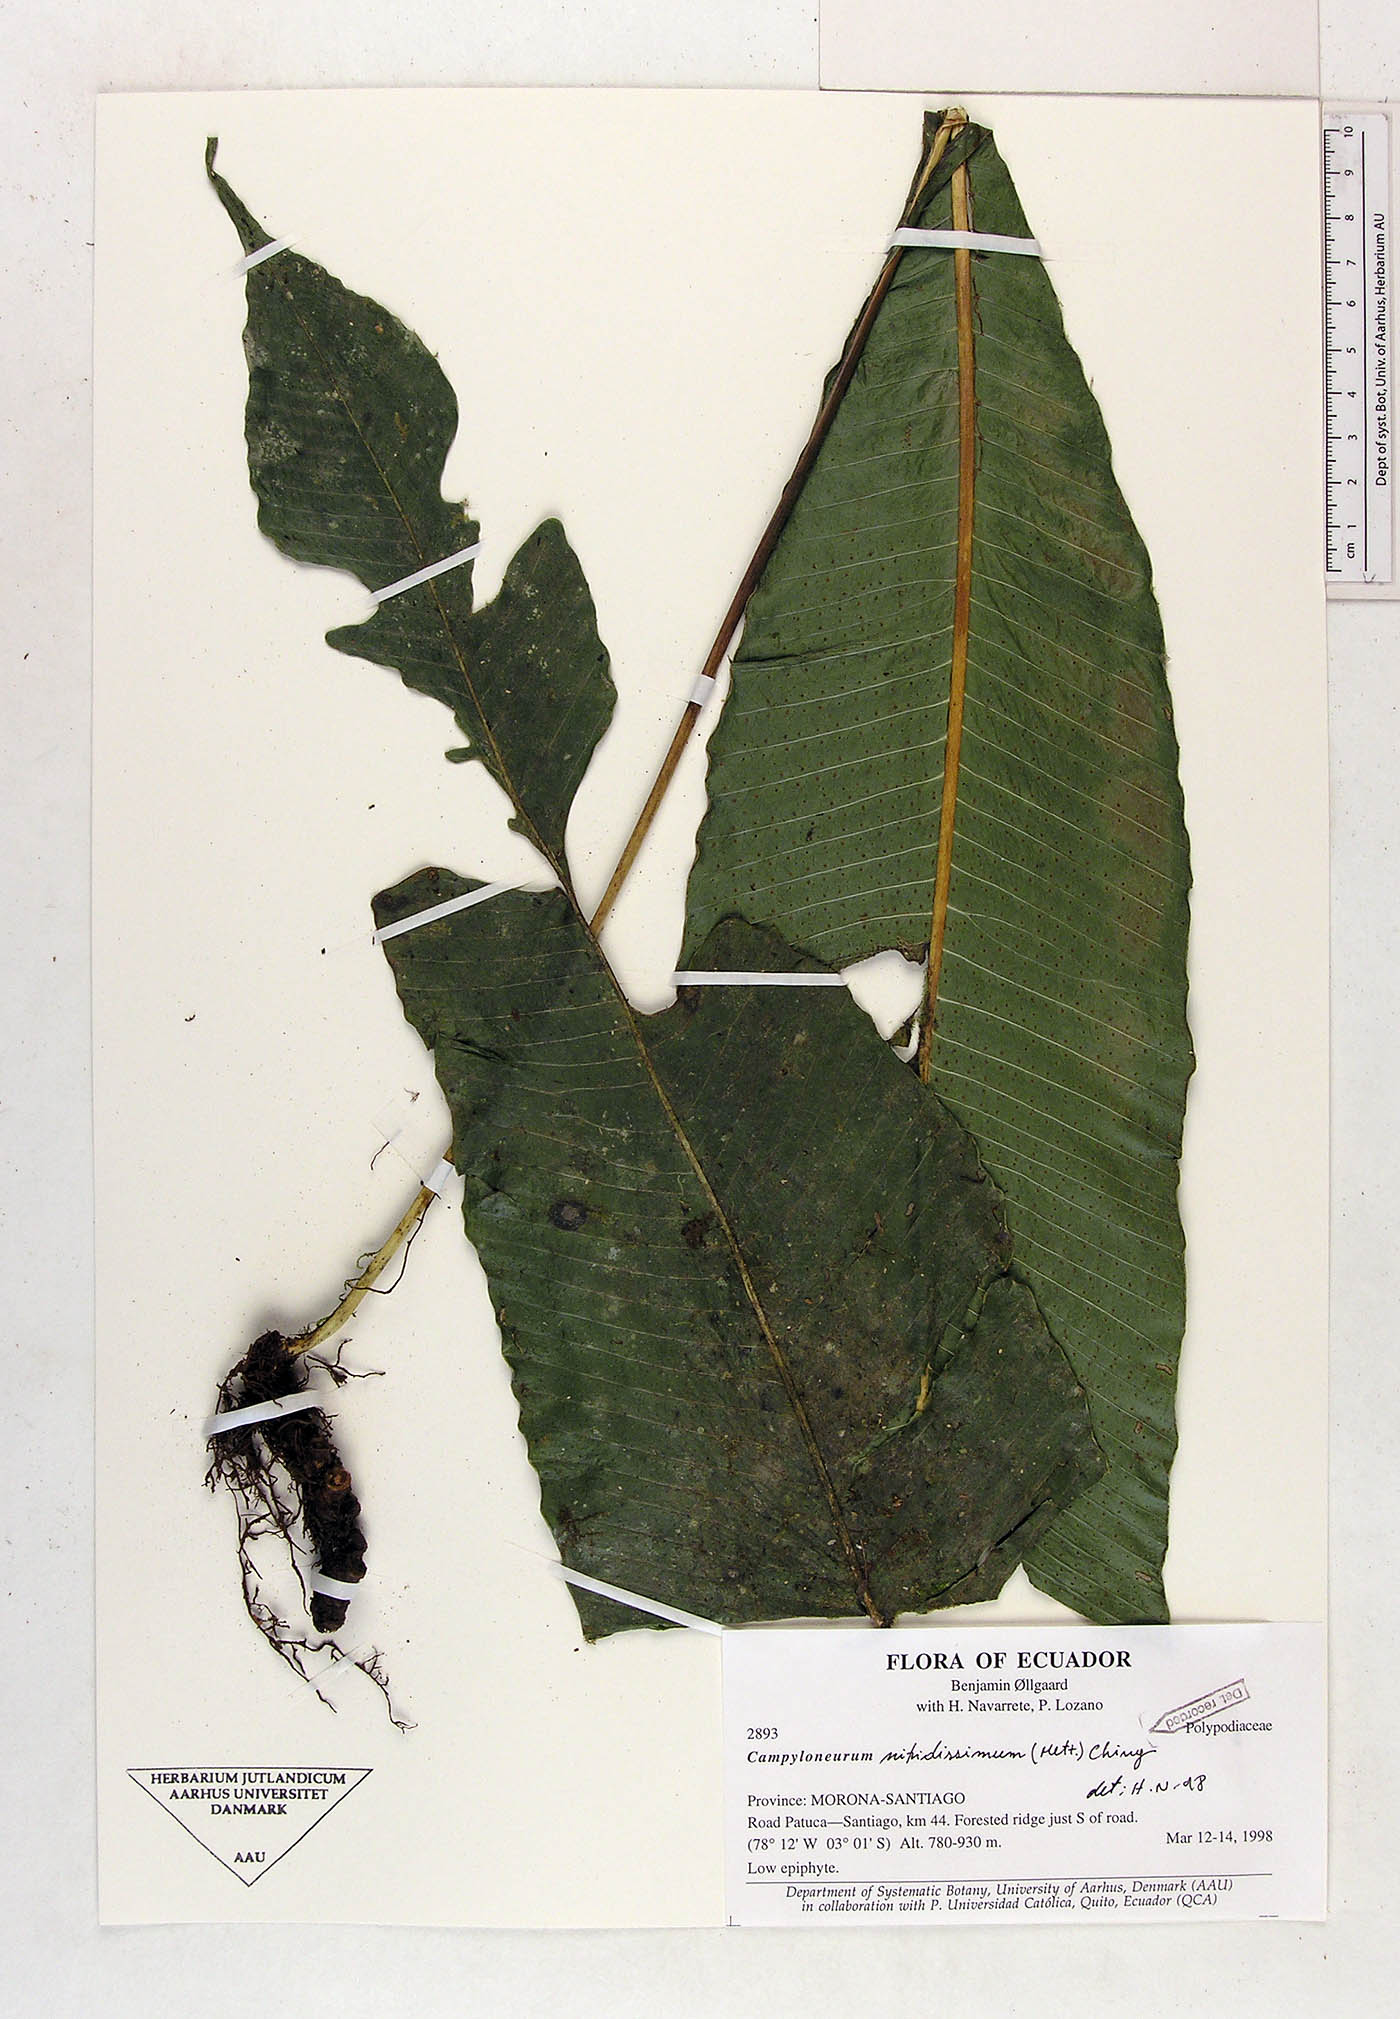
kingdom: Plantae
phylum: Tracheophyta
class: Polypodiopsida
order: Polypodiales
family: Polypodiaceae
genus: Campyloneurum
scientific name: Campyloneurum nitidissimum
